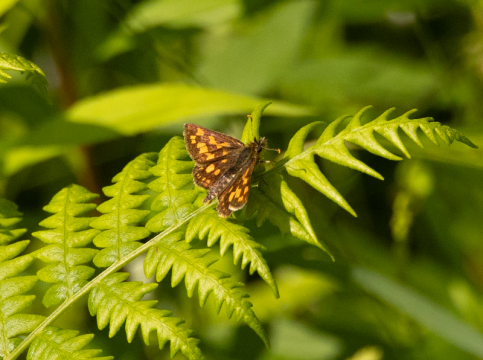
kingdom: Animalia
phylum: Arthropoda
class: Insecta
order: Lepidoptera
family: Hesperiidae
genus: Carterocephalus
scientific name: Carterocephalus palaemon
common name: Chequered Skipper
